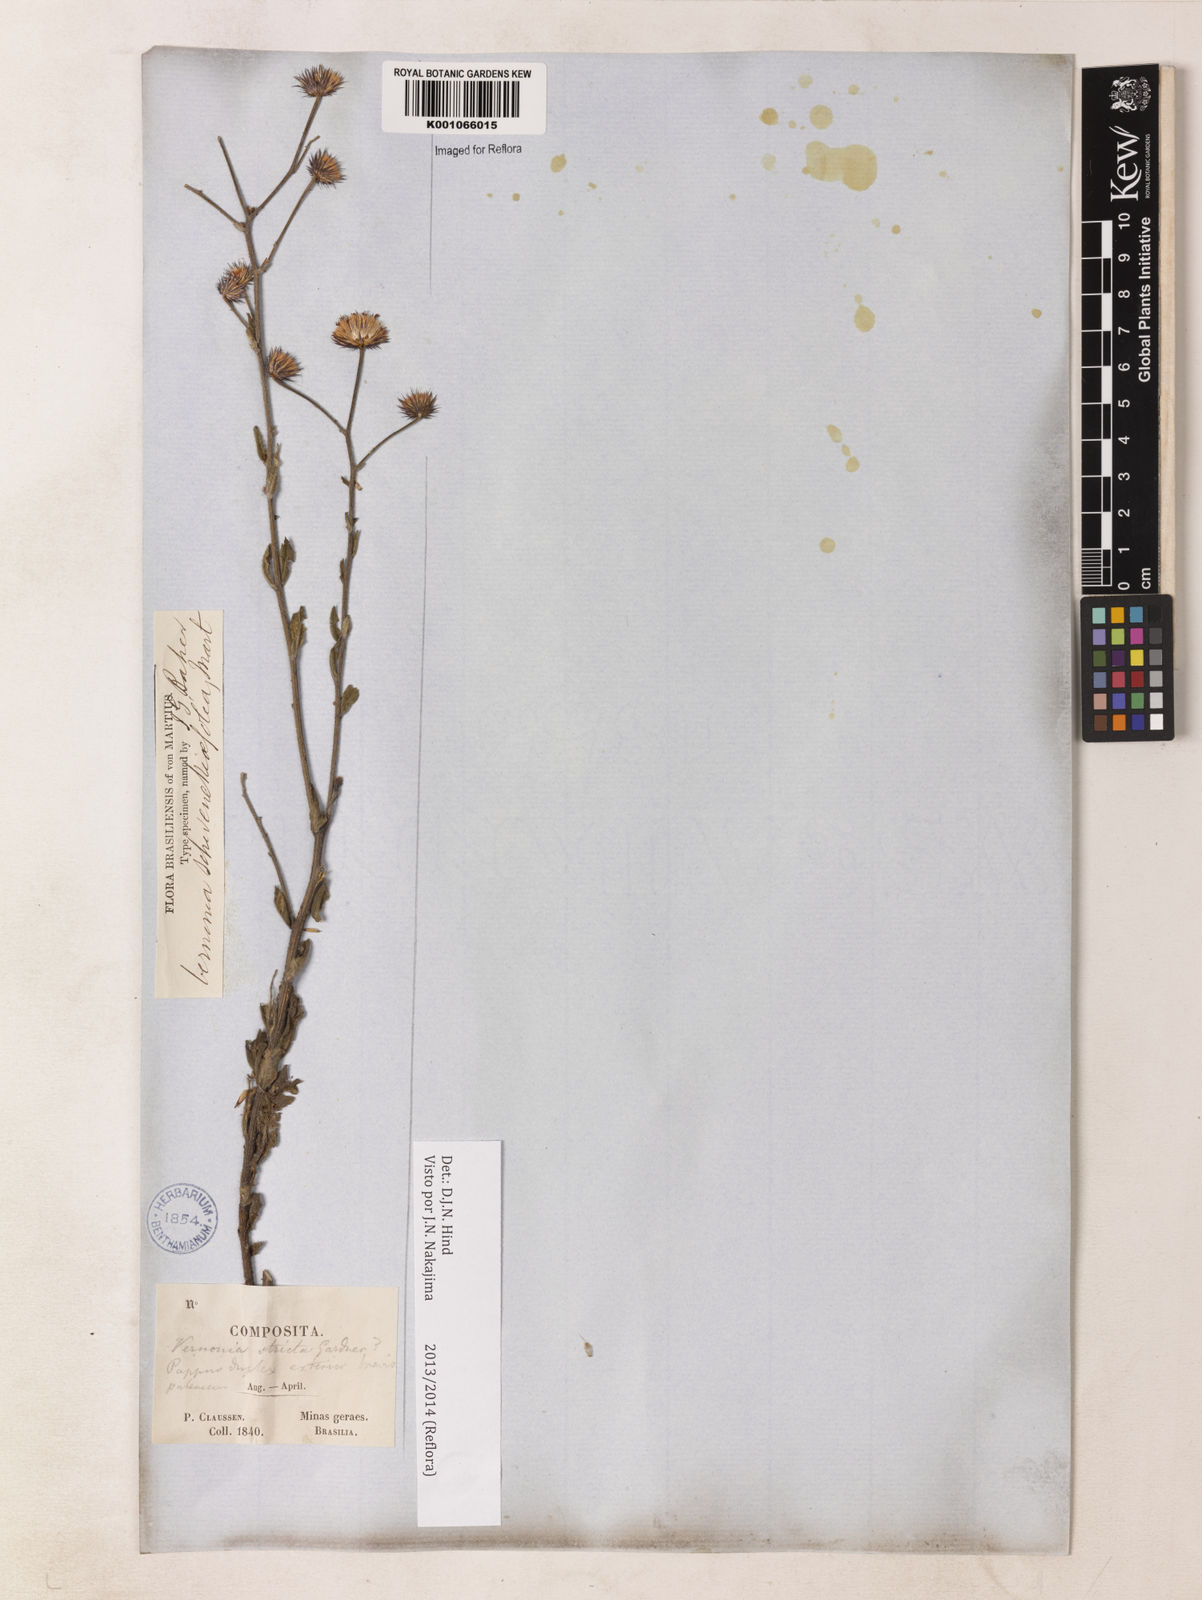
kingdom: Plantae
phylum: Tracheophyta
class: Magnoliopsida
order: Asterales
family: Asteraceae
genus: Vernonia
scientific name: Vernonia
